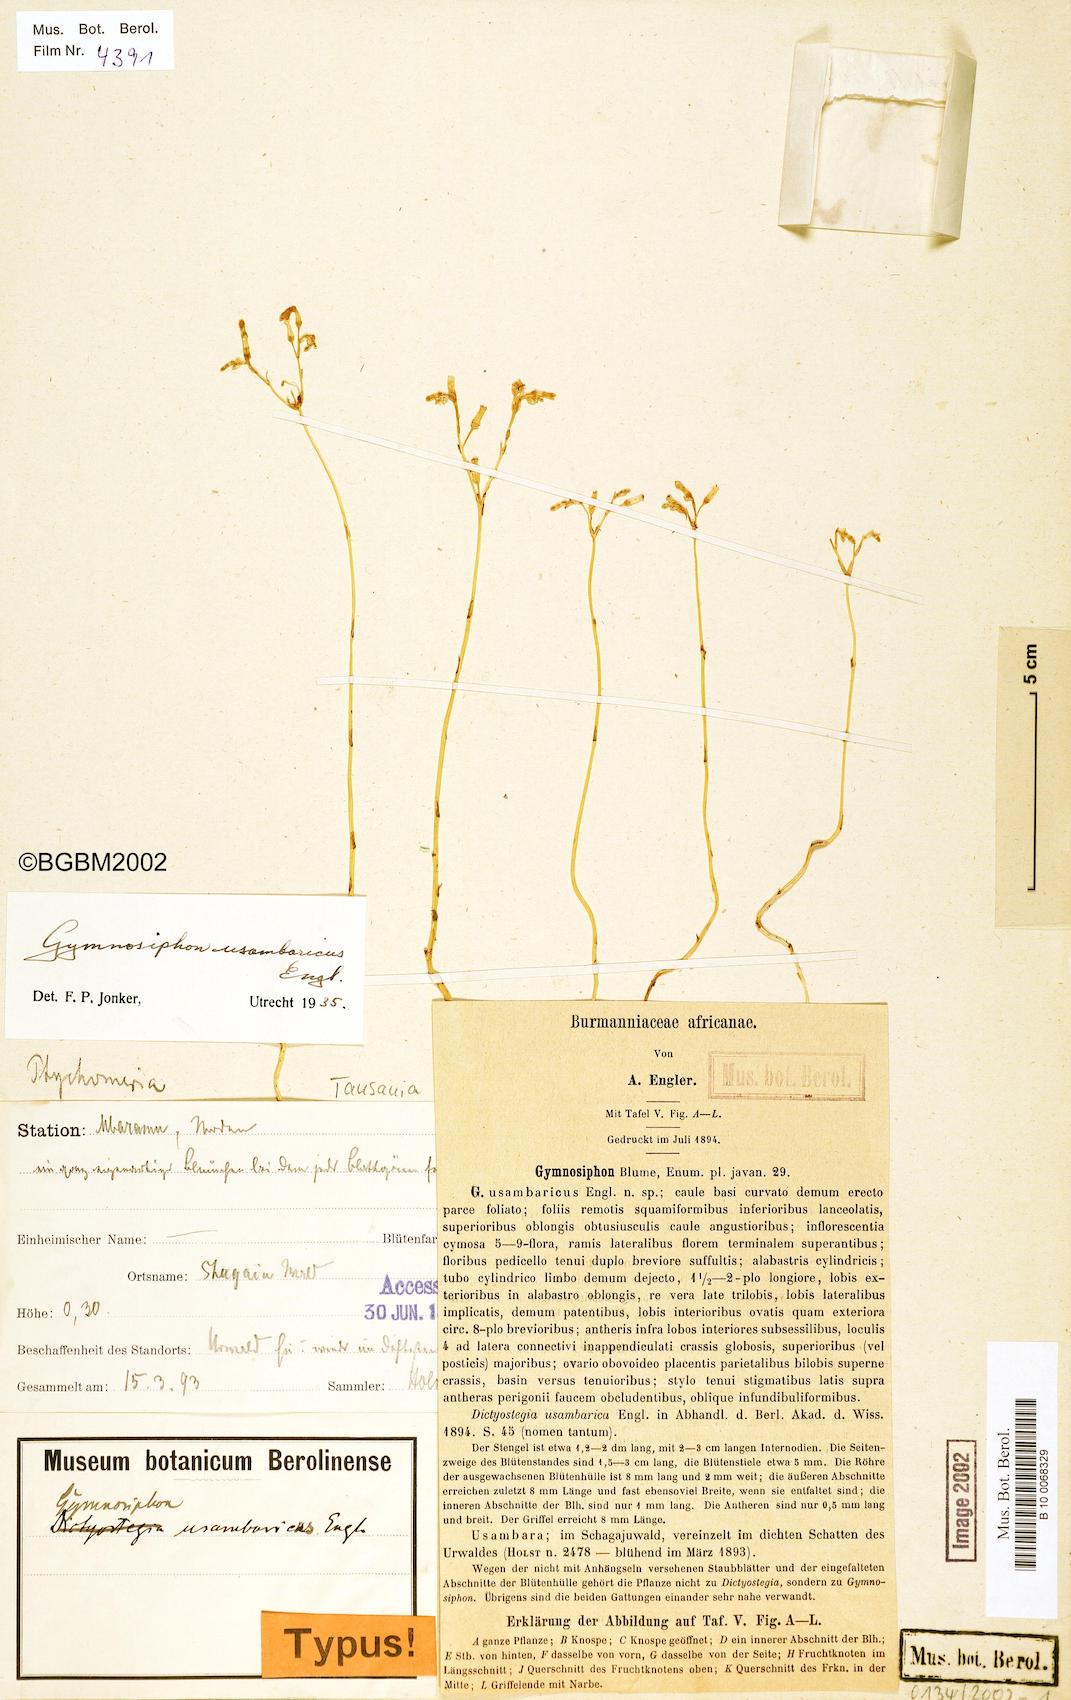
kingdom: Plantae
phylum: Tracheophyta
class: Liliopsida
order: Dioscoreales
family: Burmanniaceae
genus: Gymnosiphon
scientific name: Gymnosiphon usambaricus
